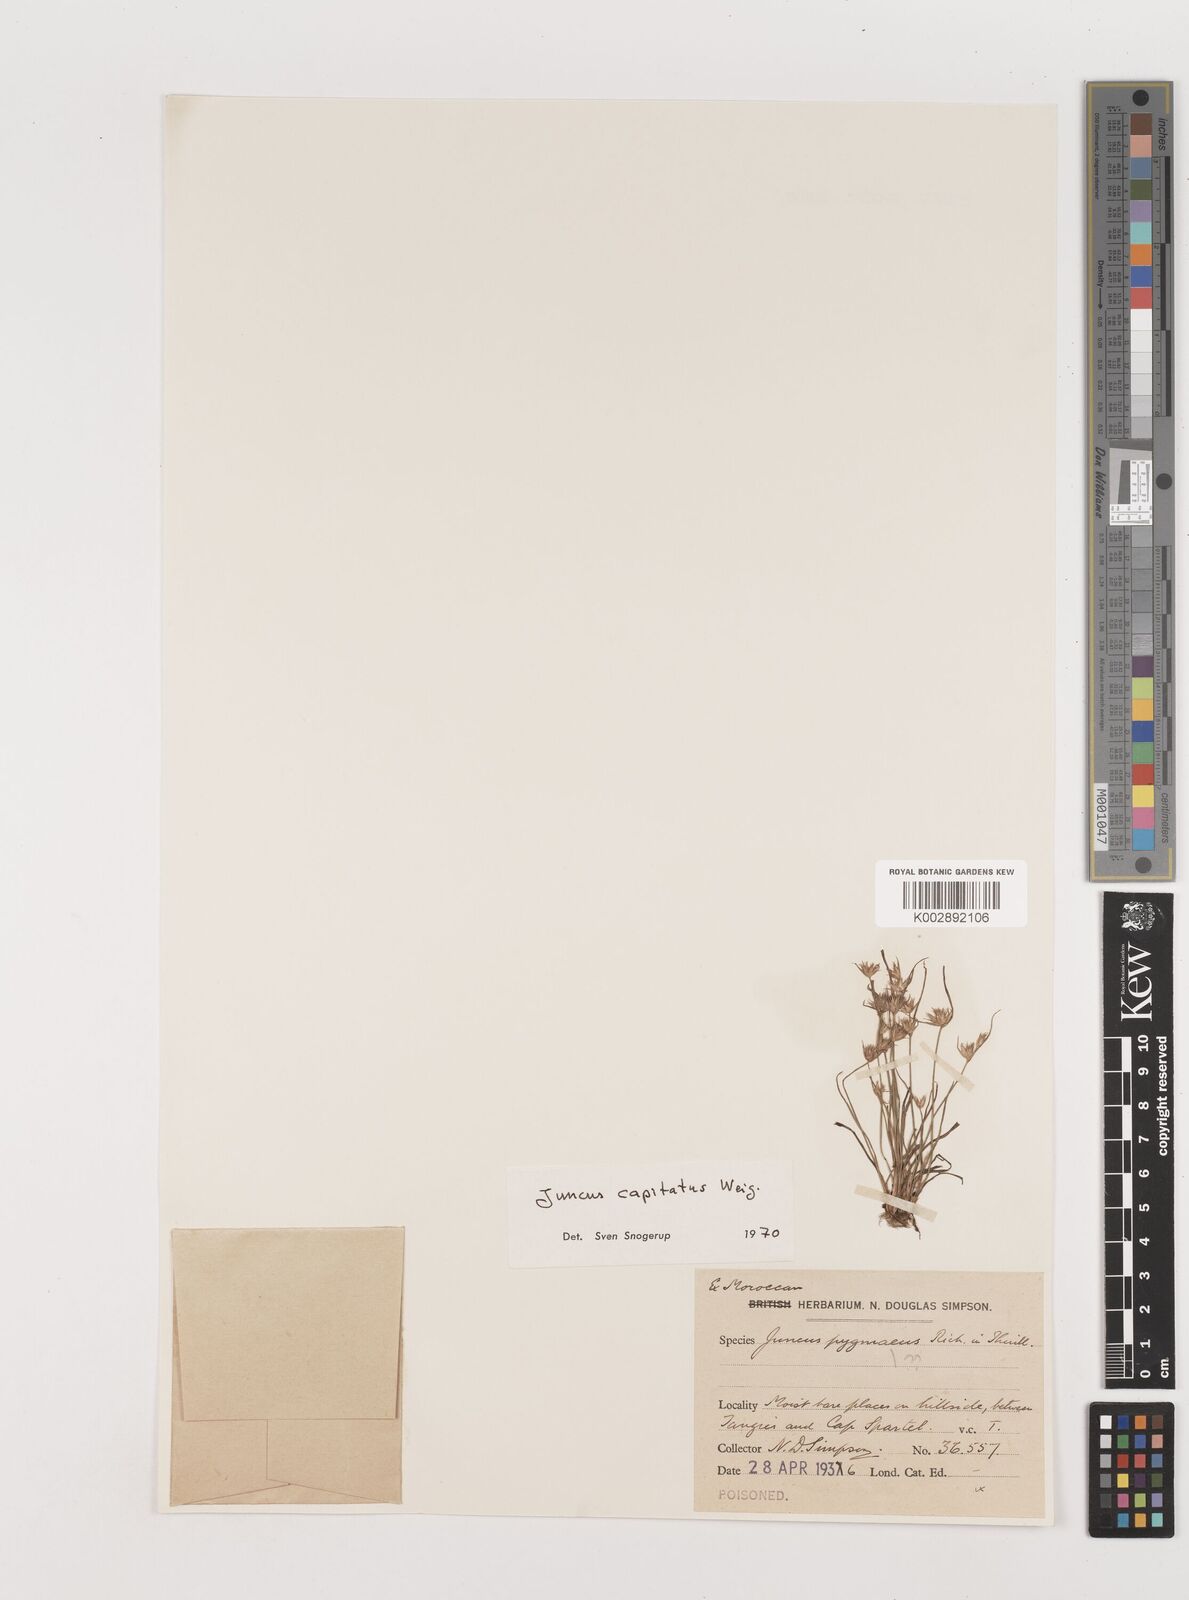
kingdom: Plantae
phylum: Tracheophyta
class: Liliopsida
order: Poales
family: Juncaceae
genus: Juncus
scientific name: Juncus capitatus
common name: Dwarf rush
